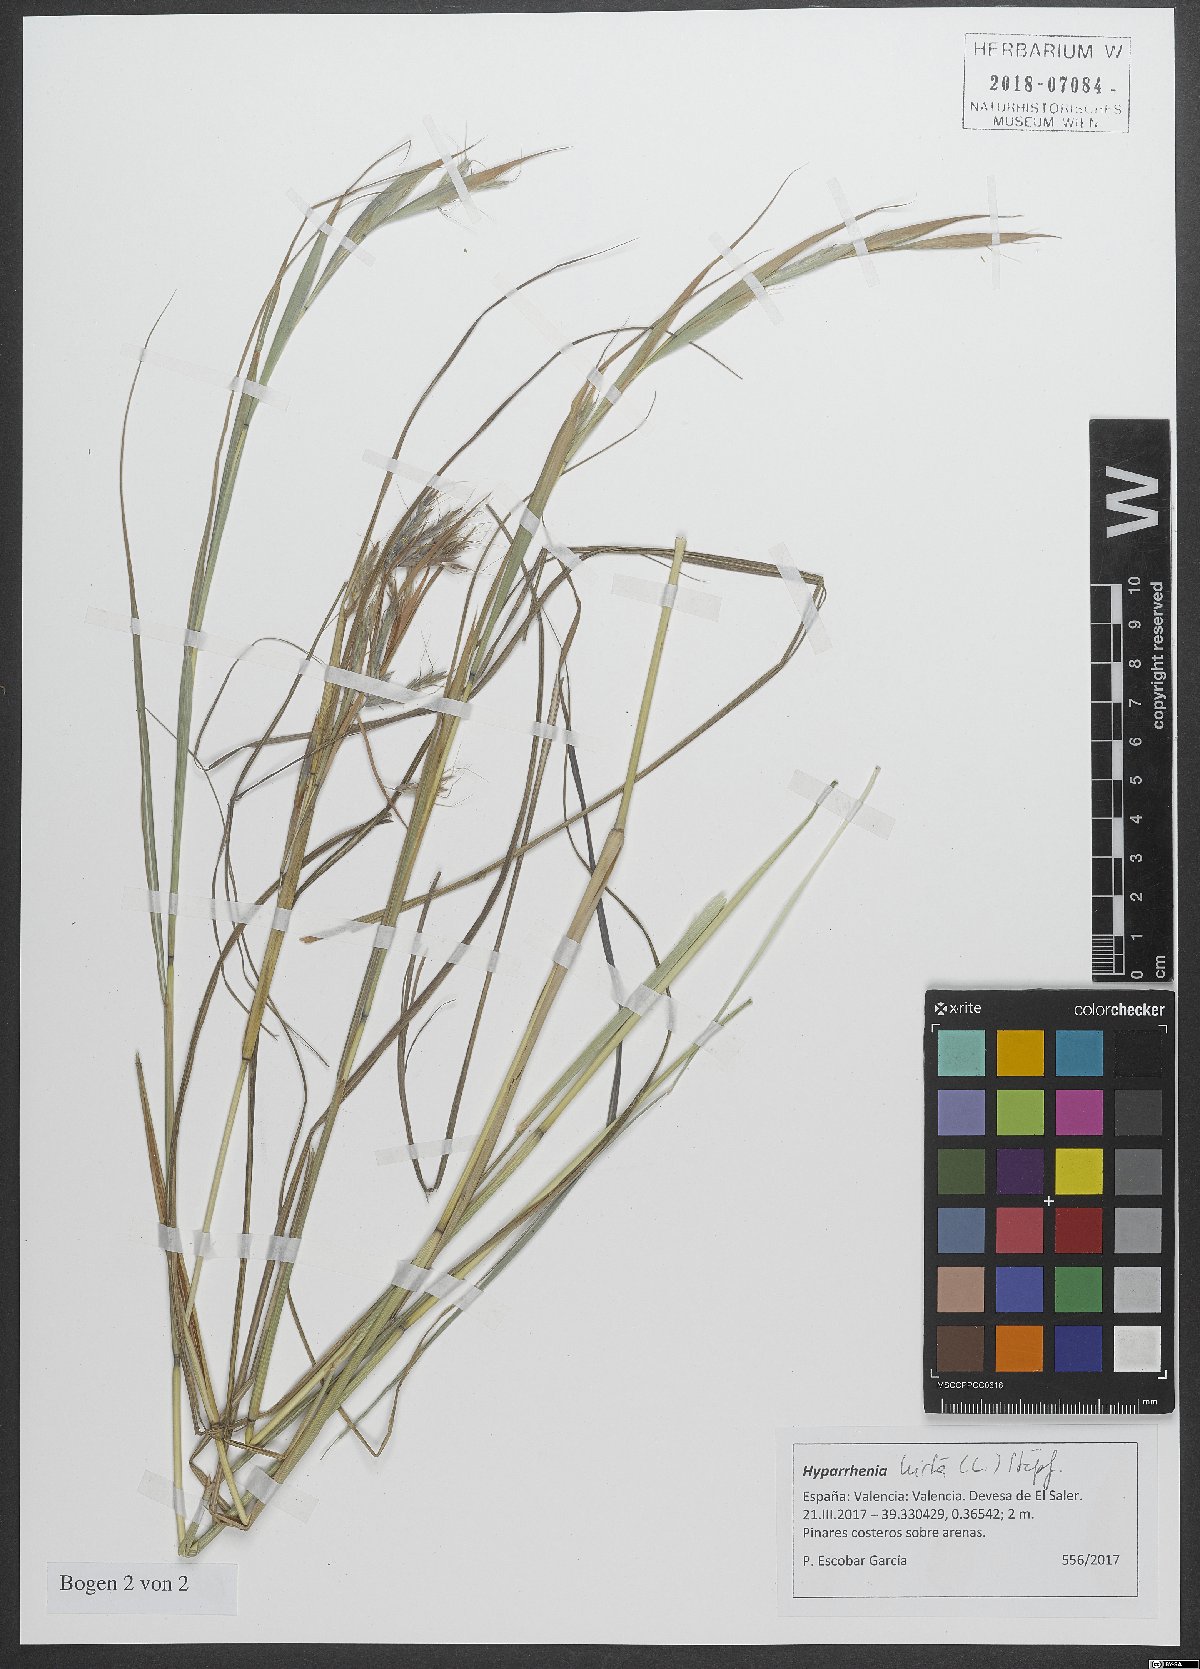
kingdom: Plantae
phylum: Tracheophyta
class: Liliopsida
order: Poales
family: Poaceae
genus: Hyparrhenia
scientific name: Hyparrhenia hirta
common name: Thatching grass
